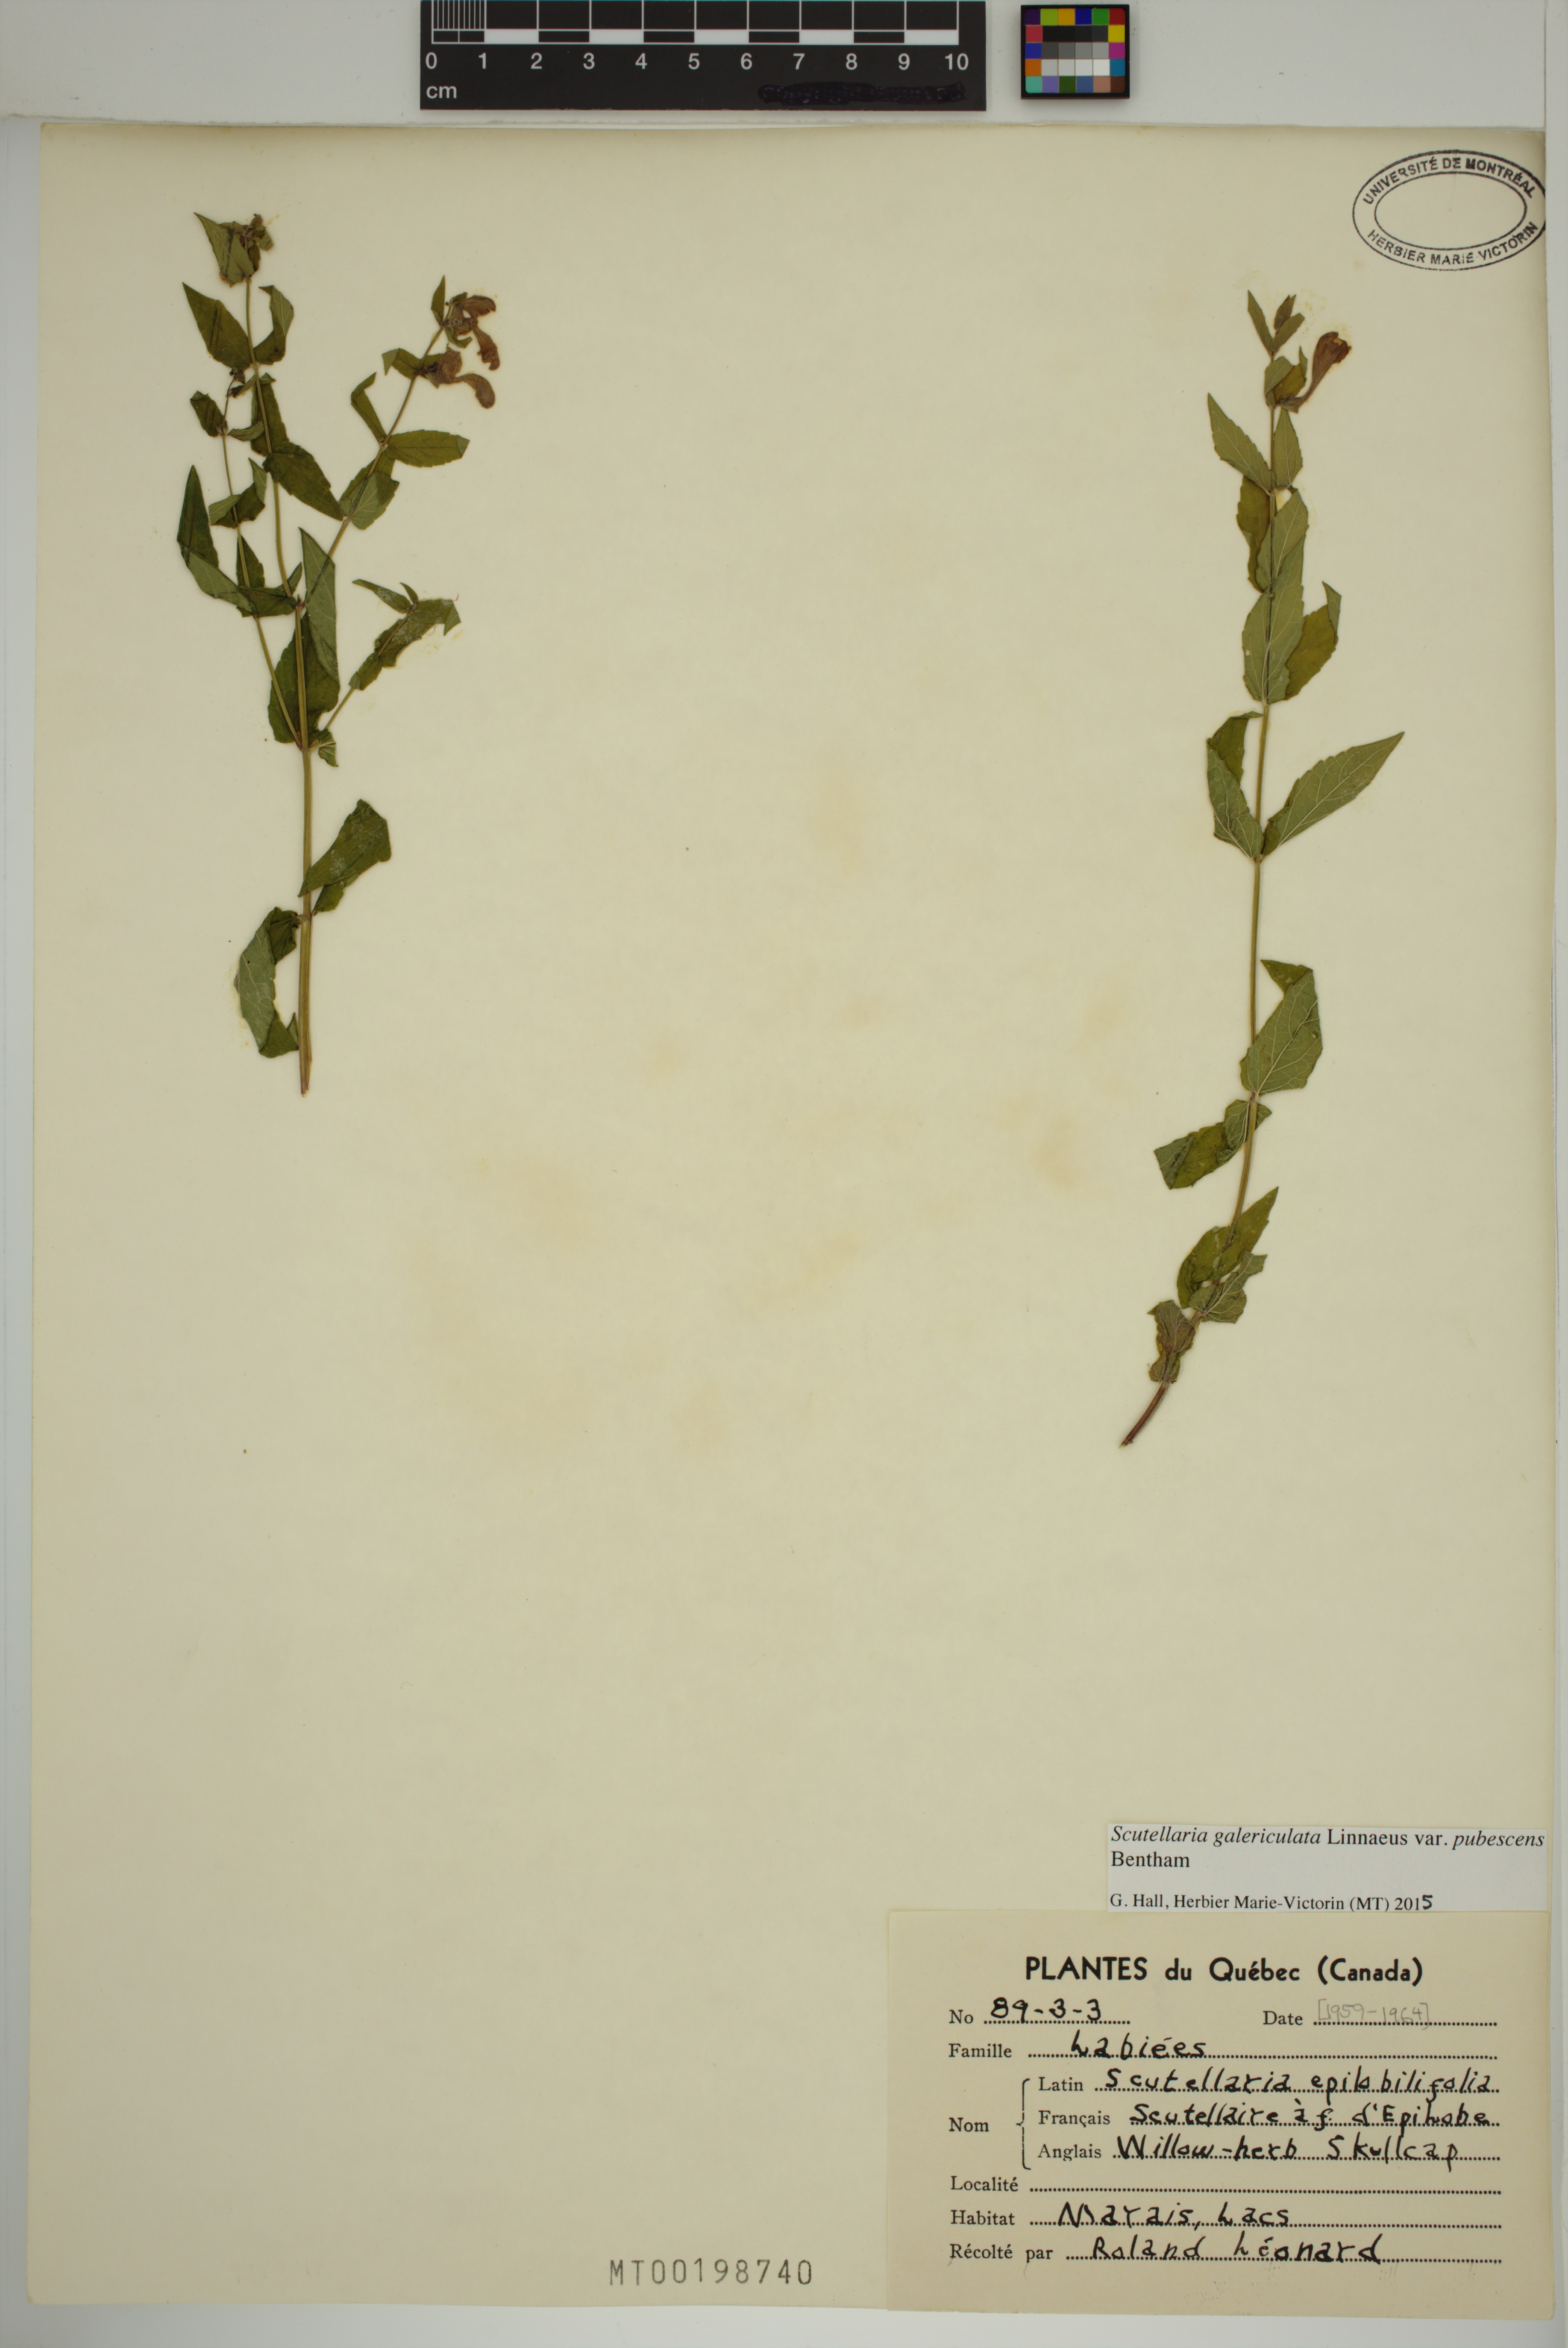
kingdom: Plantae
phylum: Tracheophyta
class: Magnoliopsida
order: Lamiales
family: Lamiaceae
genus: Scutellaria
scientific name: Scutellaria nicholsonii
